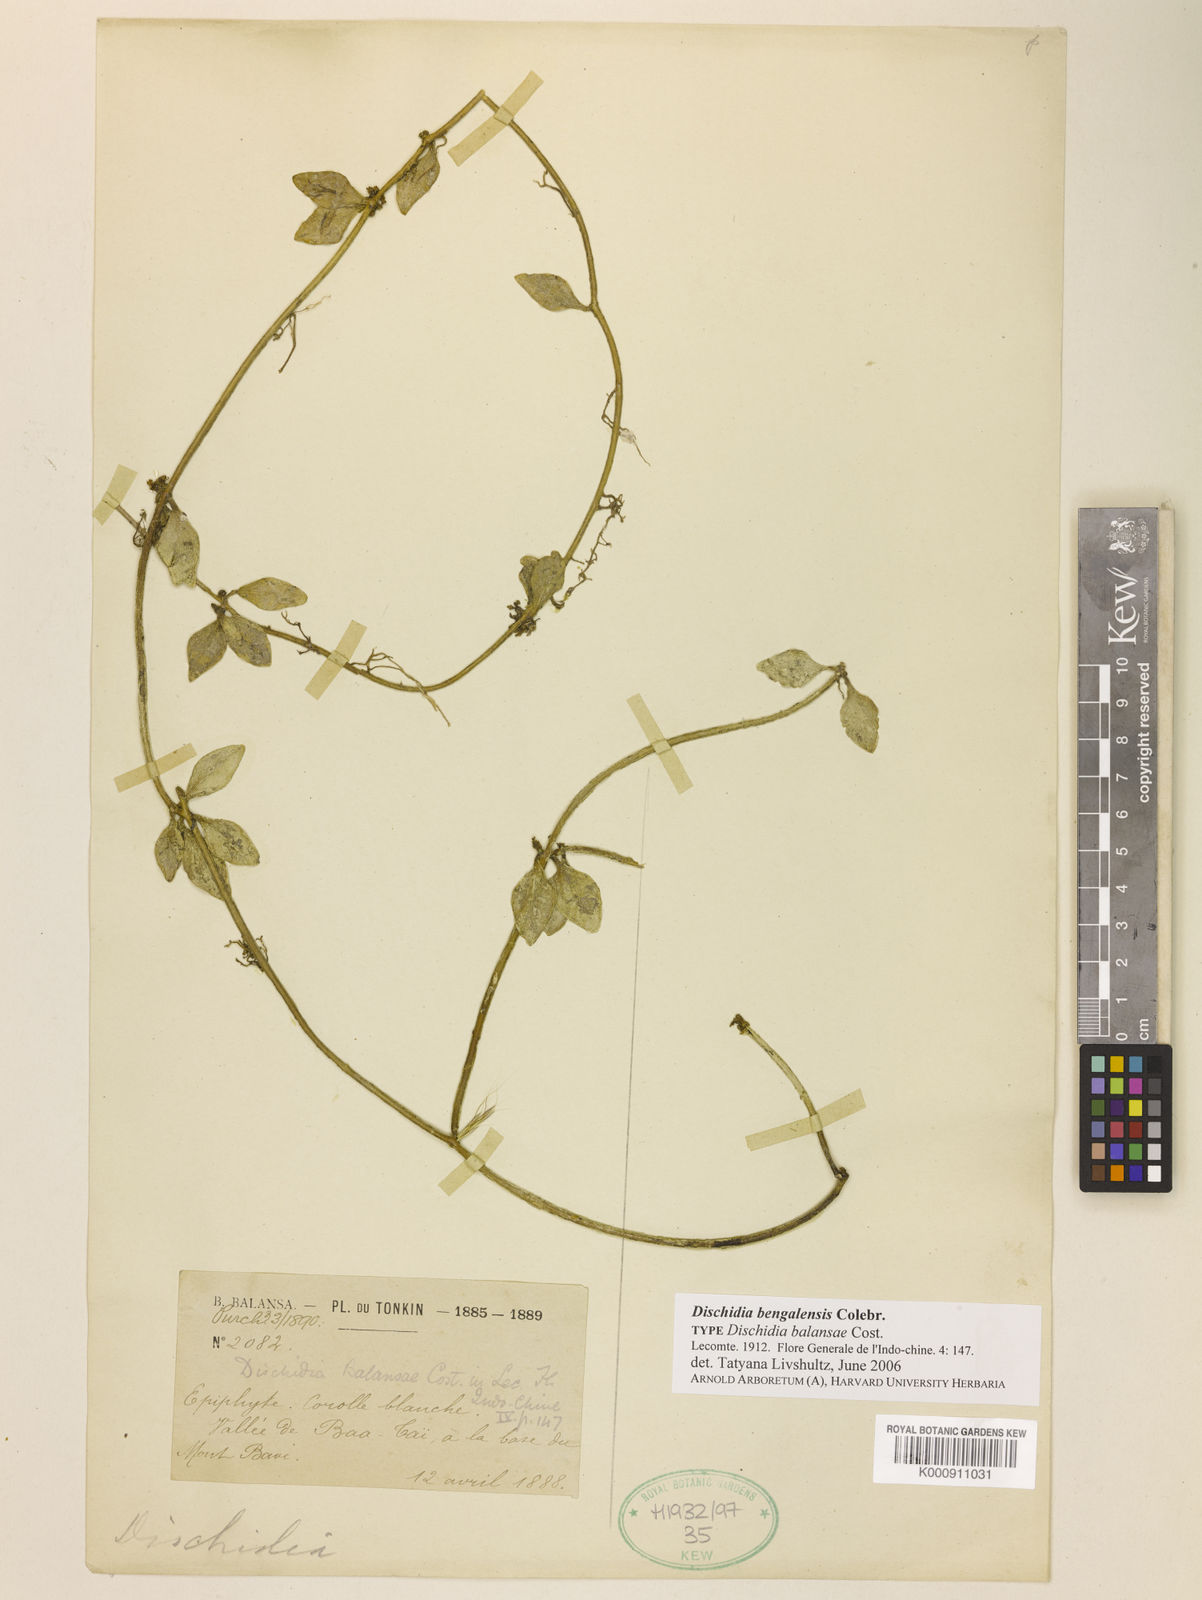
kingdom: Plantae
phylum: Tracheophyta
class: Magnoliopsida
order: Gentianales
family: Apocynaceae
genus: Dischidia
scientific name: Dischidia bengalensis
